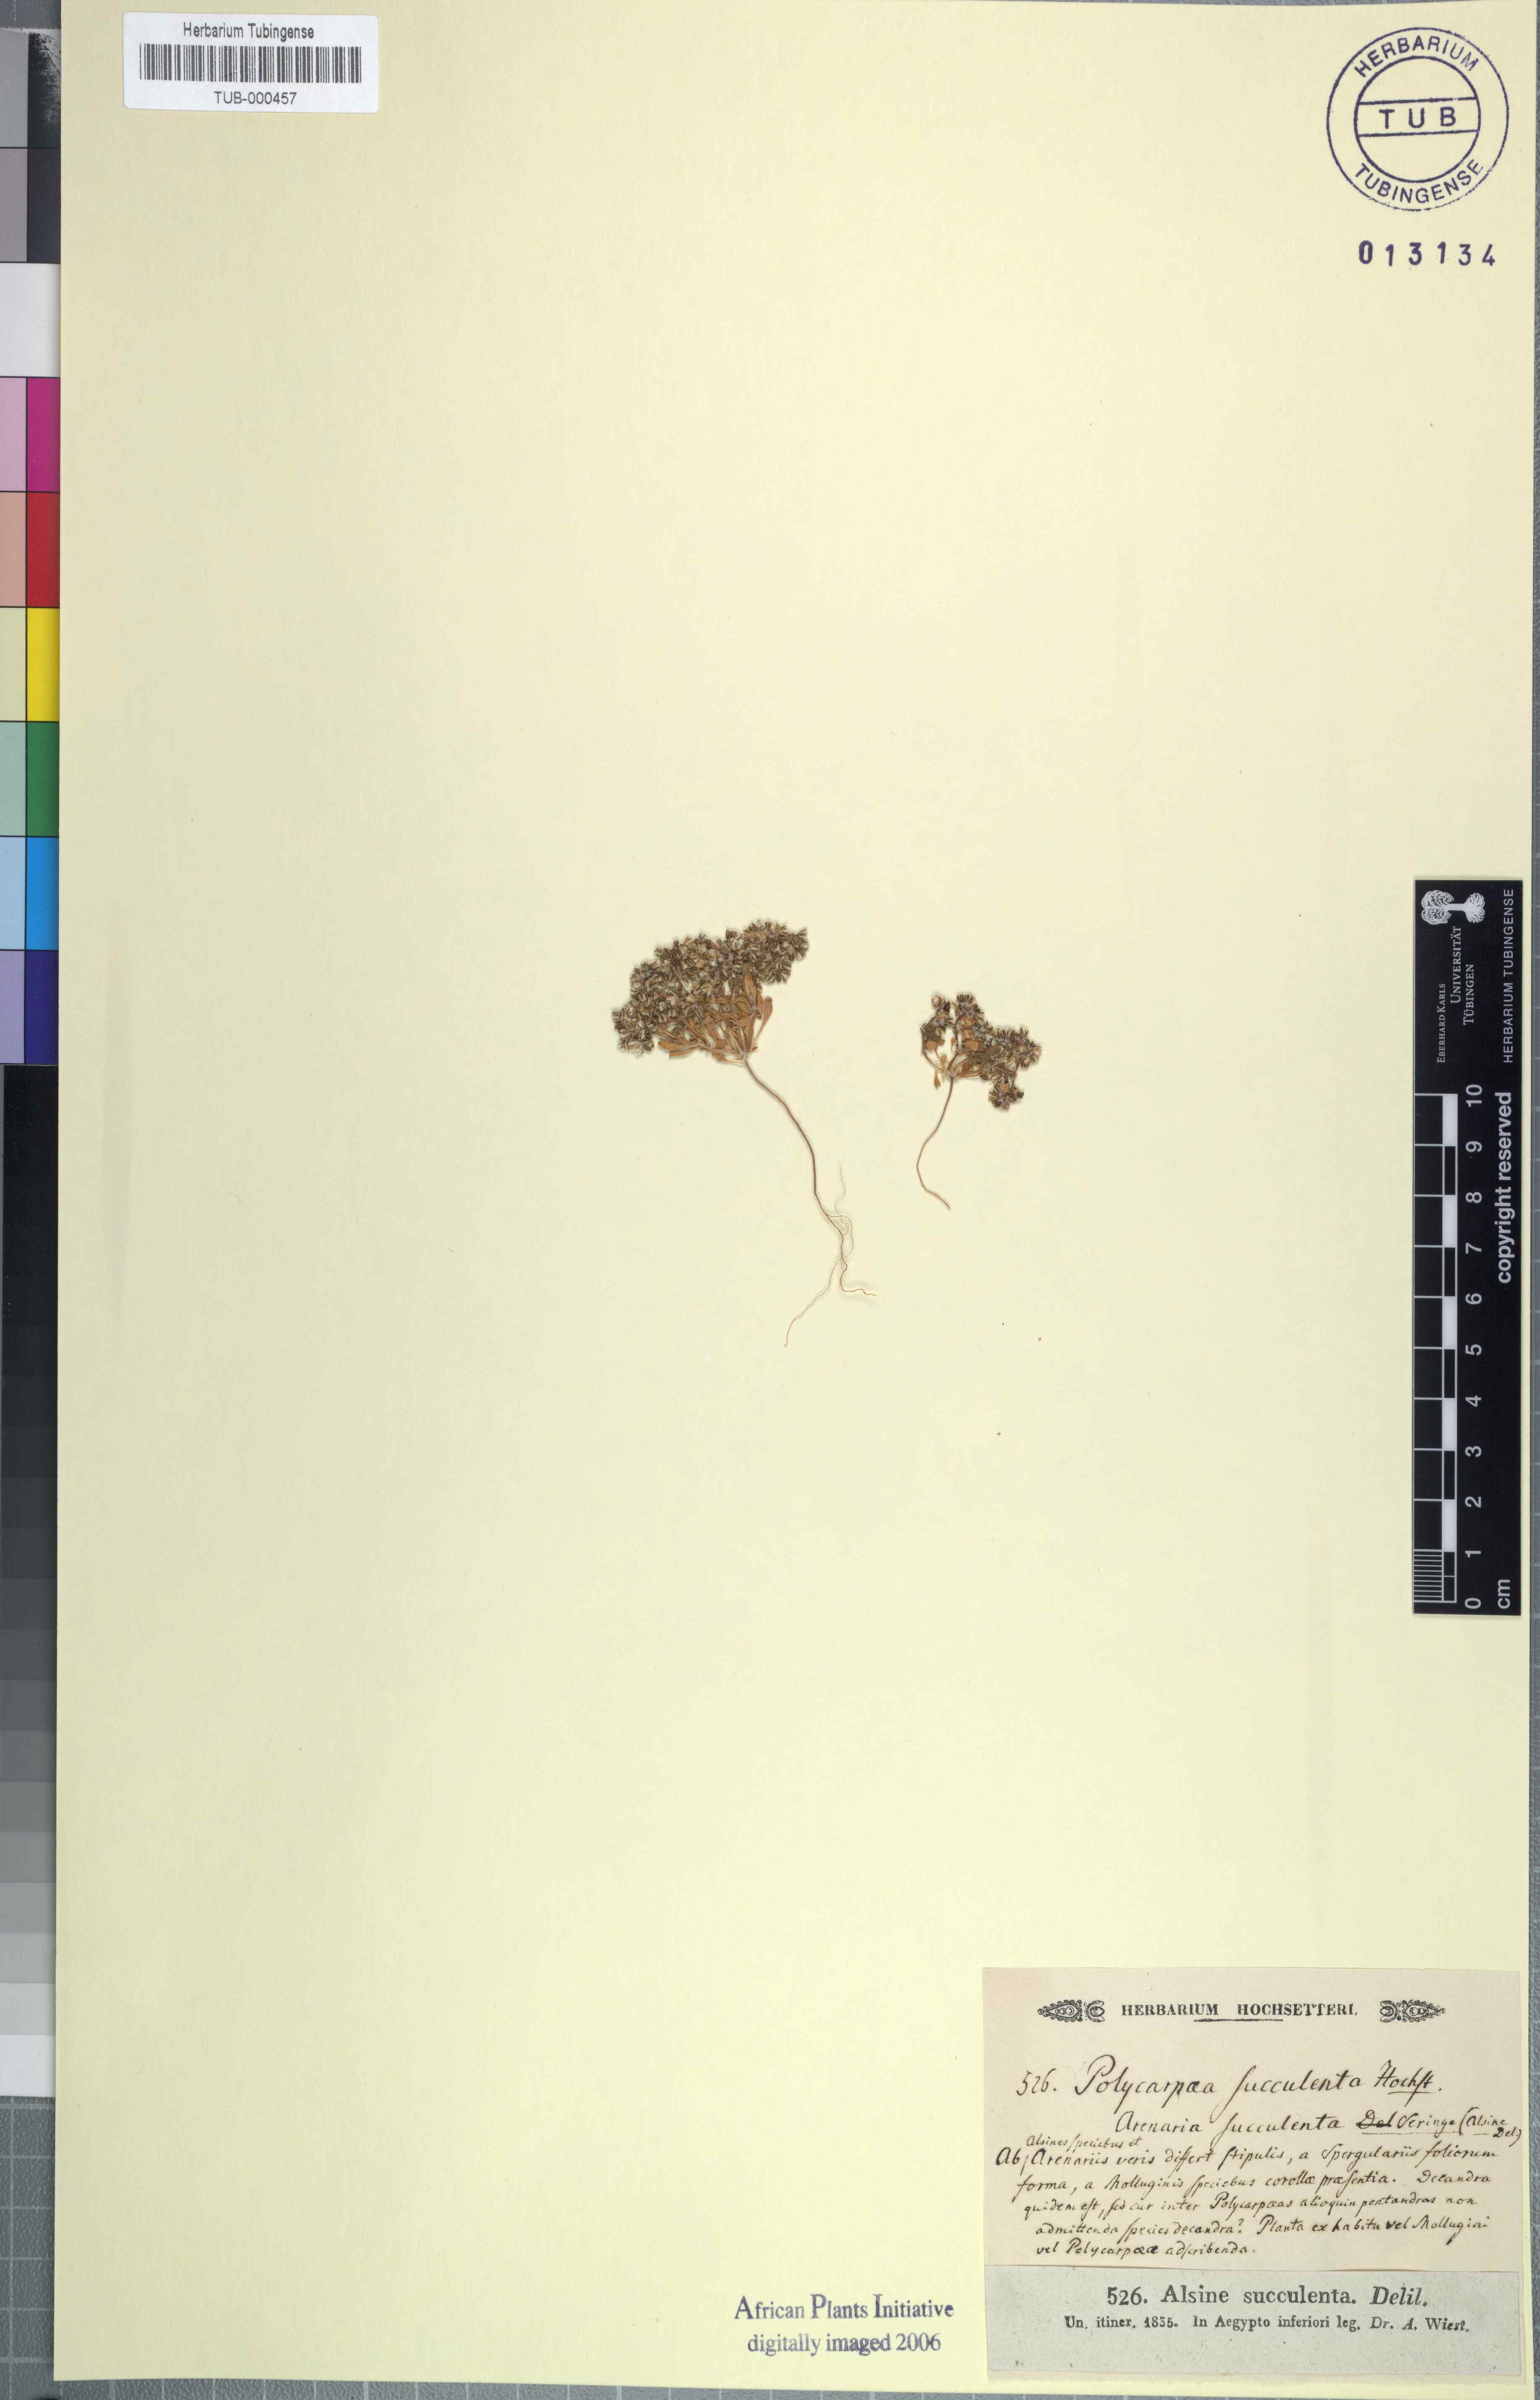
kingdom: Plantae
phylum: Tracheophyta
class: Magnoliopsida
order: Caryophyllales
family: Caryophyllaceae
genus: Polycarpon
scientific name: Polycarpon tetraphyllum
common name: Four-leaved all-seed
